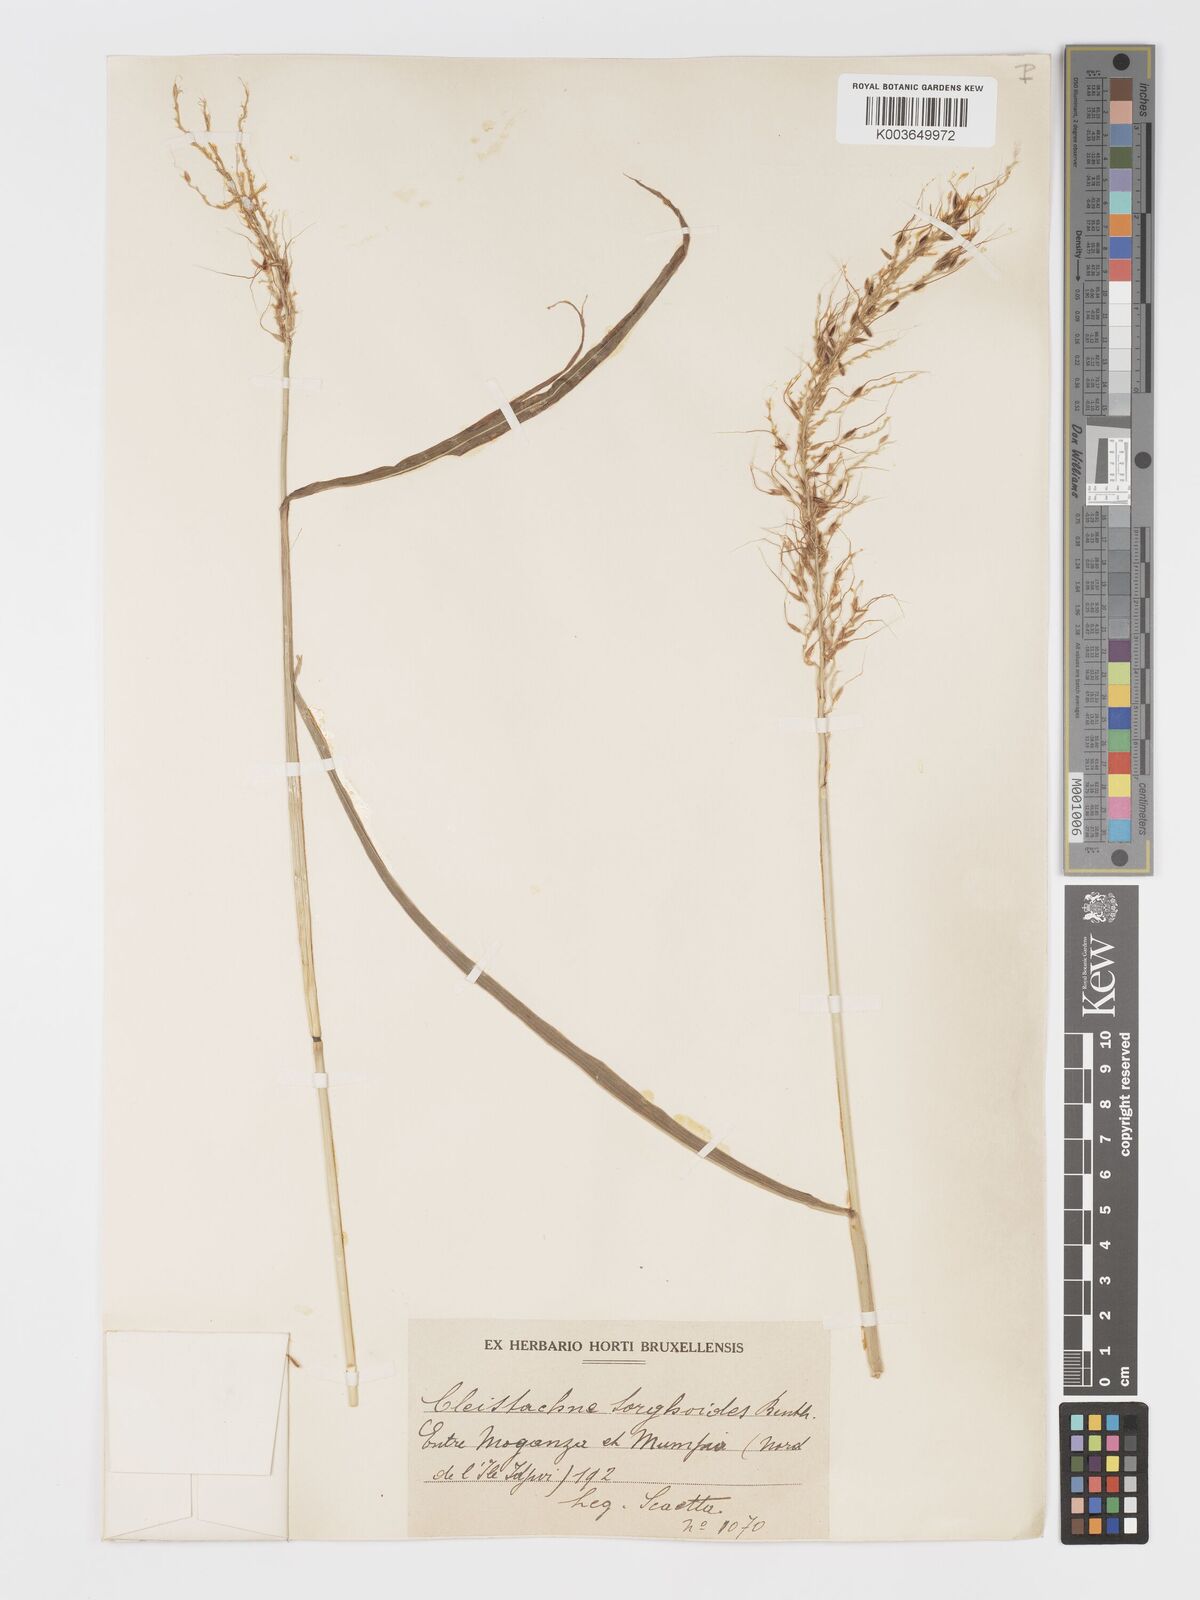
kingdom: Plantae
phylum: Tracheophyta
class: Liliopsida
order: Poales
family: Poaceae
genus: Cleistachne
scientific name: Cleistachne sorghoides
